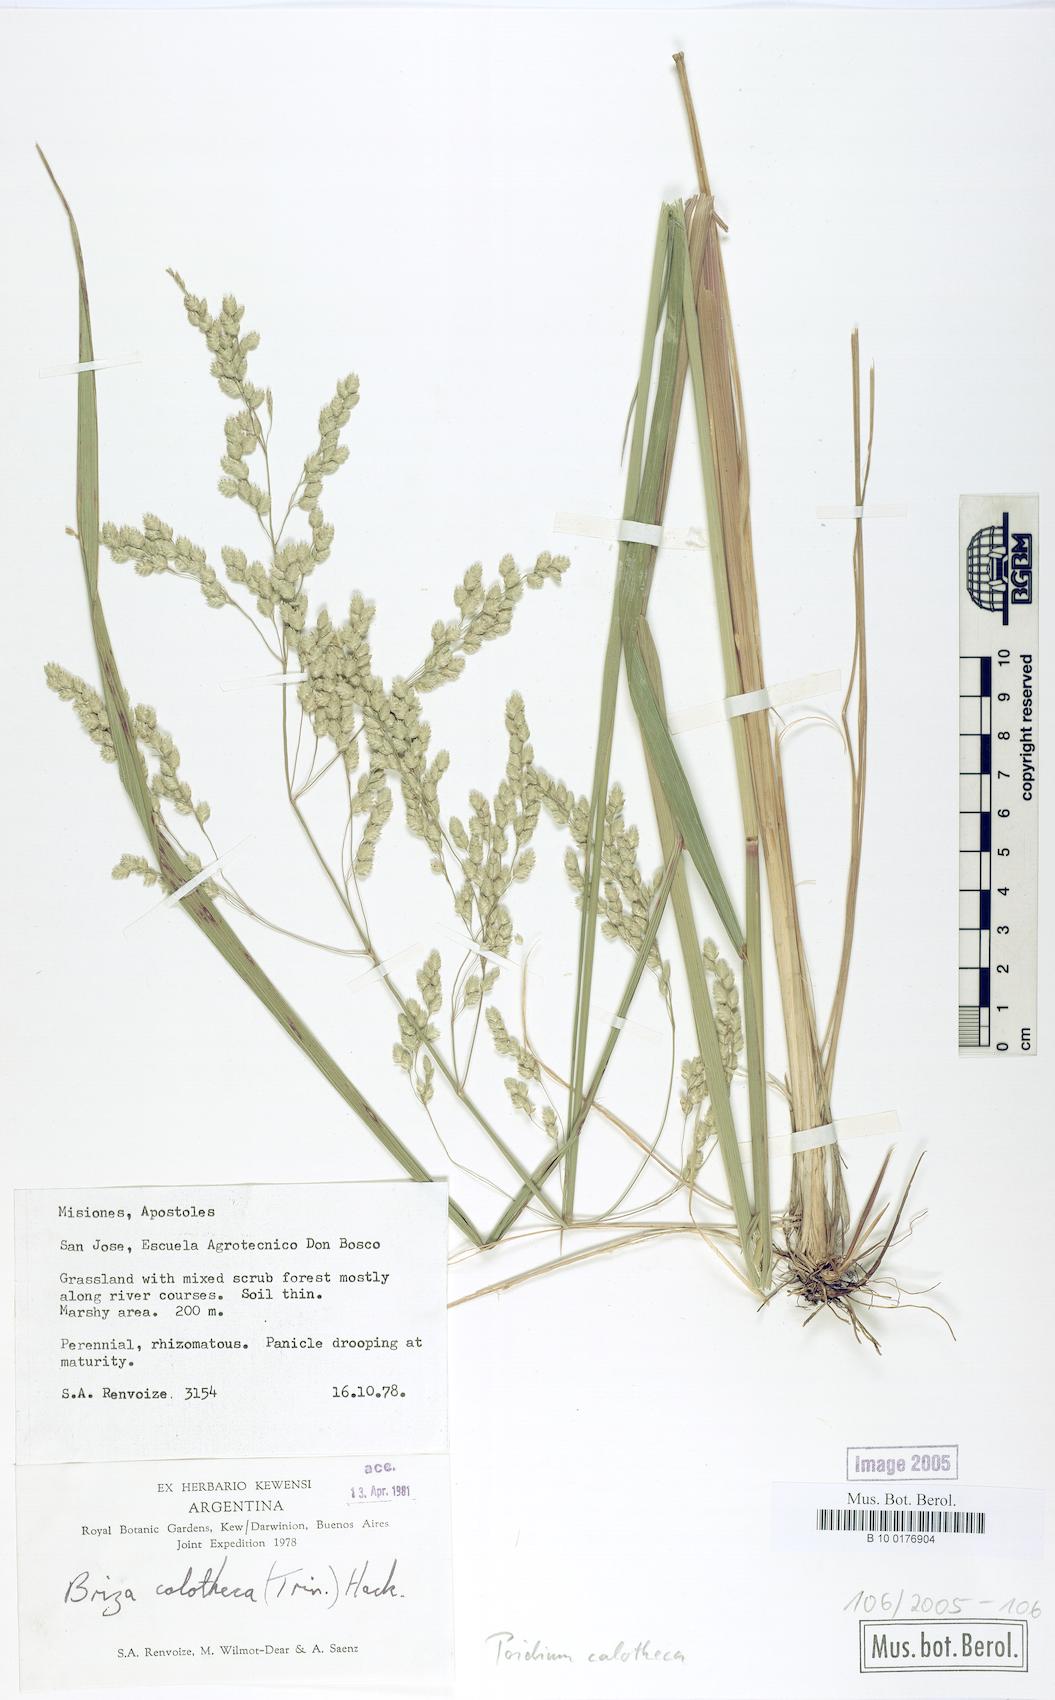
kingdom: Plantae
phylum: Tracheophyta
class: Liliopsida
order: Poales
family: Poaceae
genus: Poidium
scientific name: Poidium calotheca
